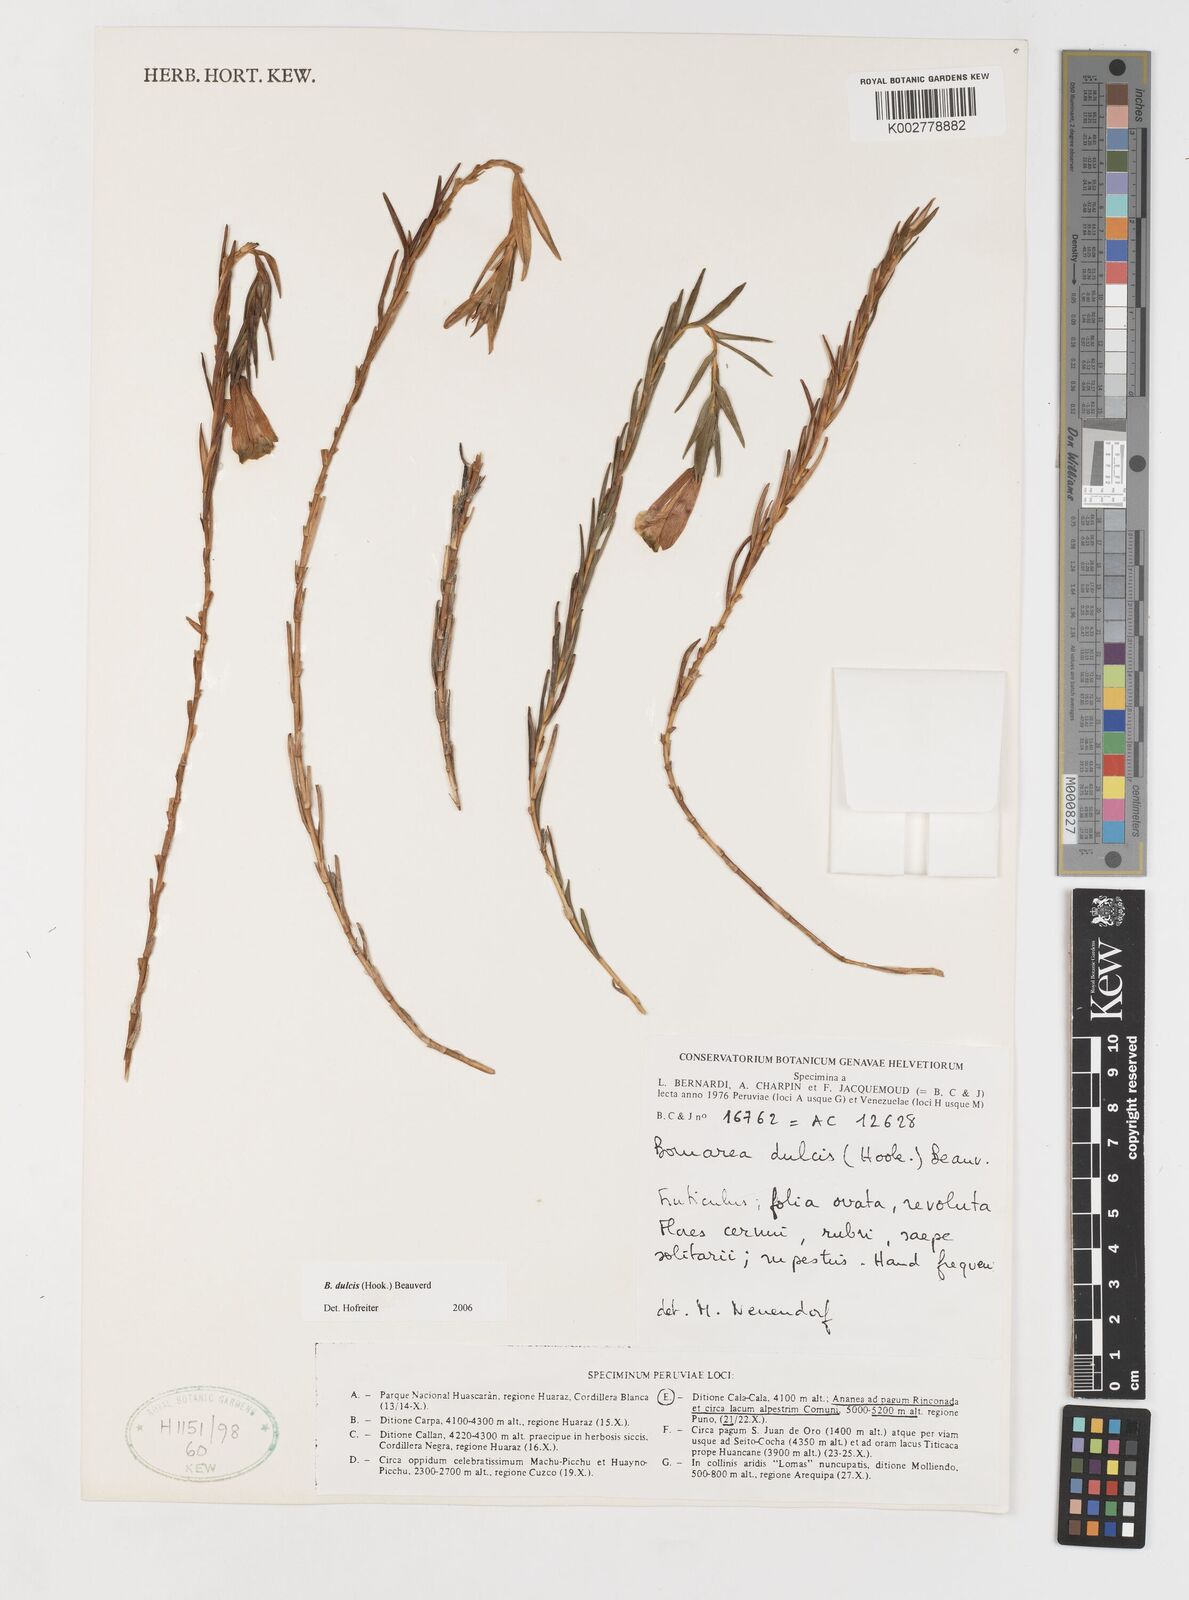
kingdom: Plantae
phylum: Tracheophyta
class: Liliopsida
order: Liliales
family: Alstroemeriaceae
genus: Bomarea
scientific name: Bomarea dulcis
